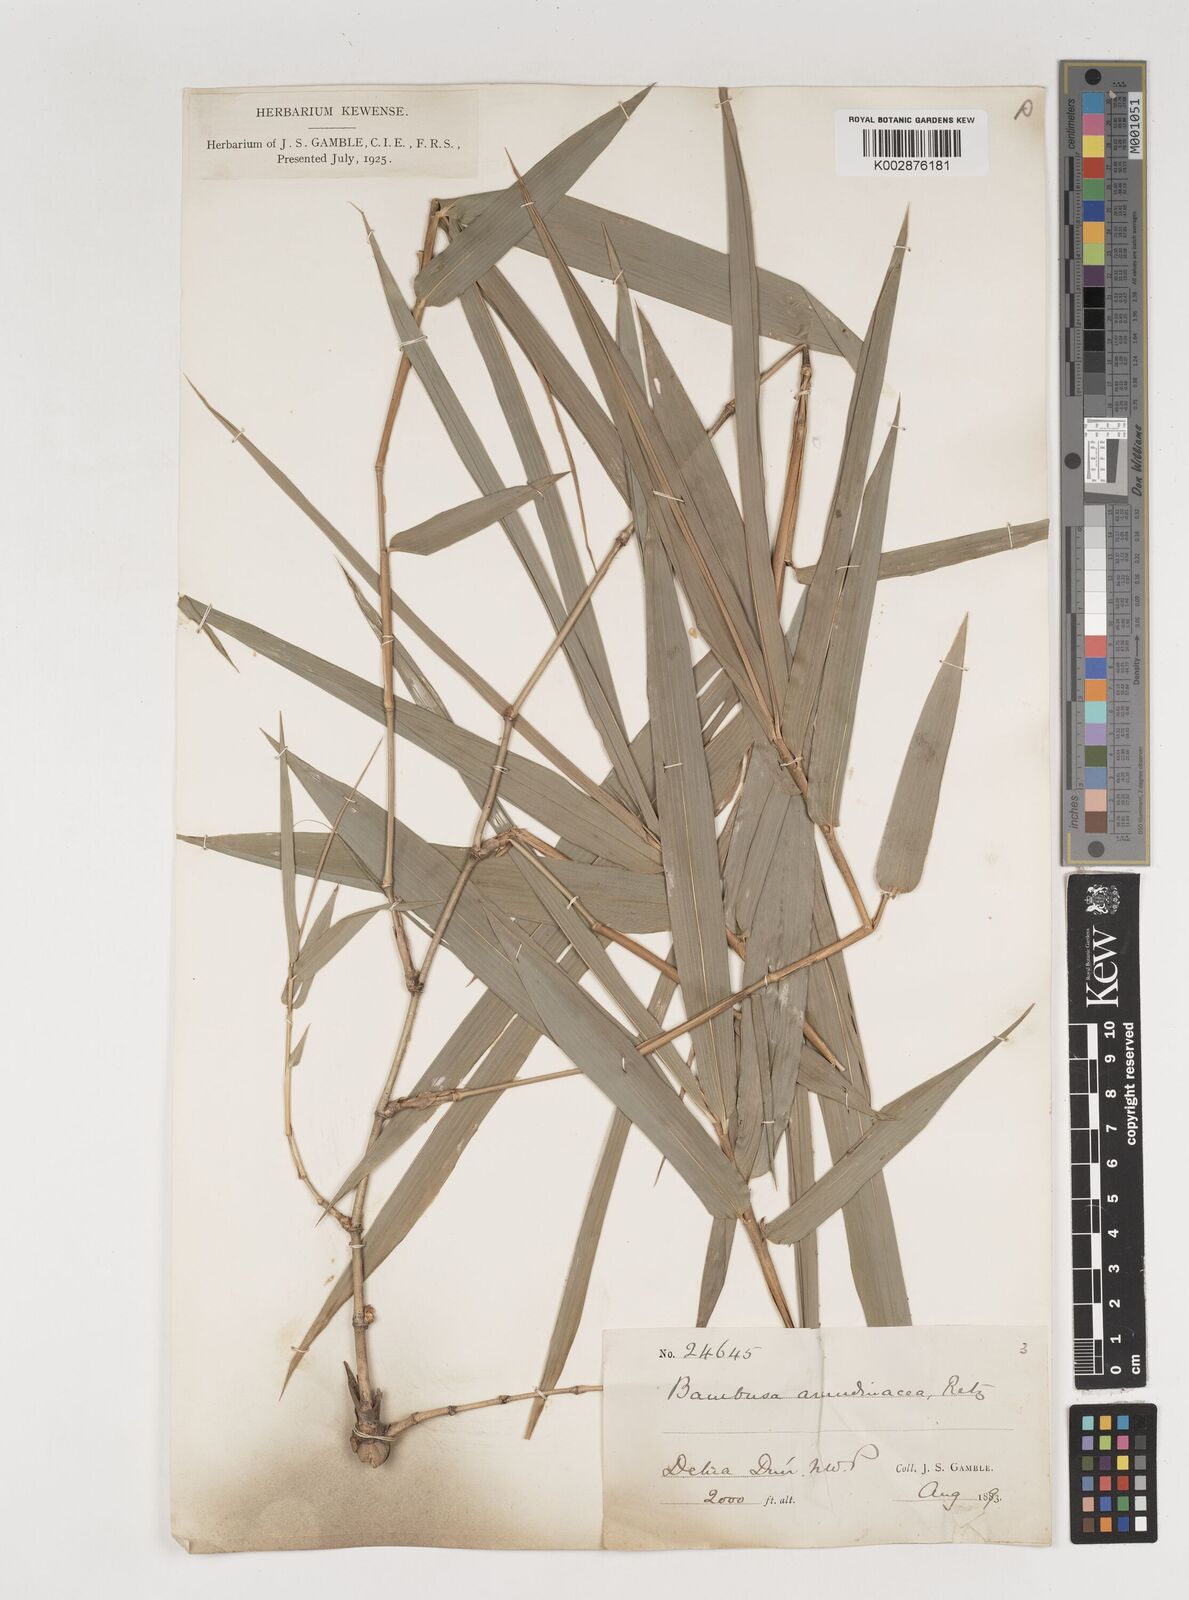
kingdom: Plantae
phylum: Tracheophyta
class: Liliopsida
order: Poales
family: Poaceae
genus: Bambusa
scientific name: Bambusa bambos
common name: Indian thorny bamboo
